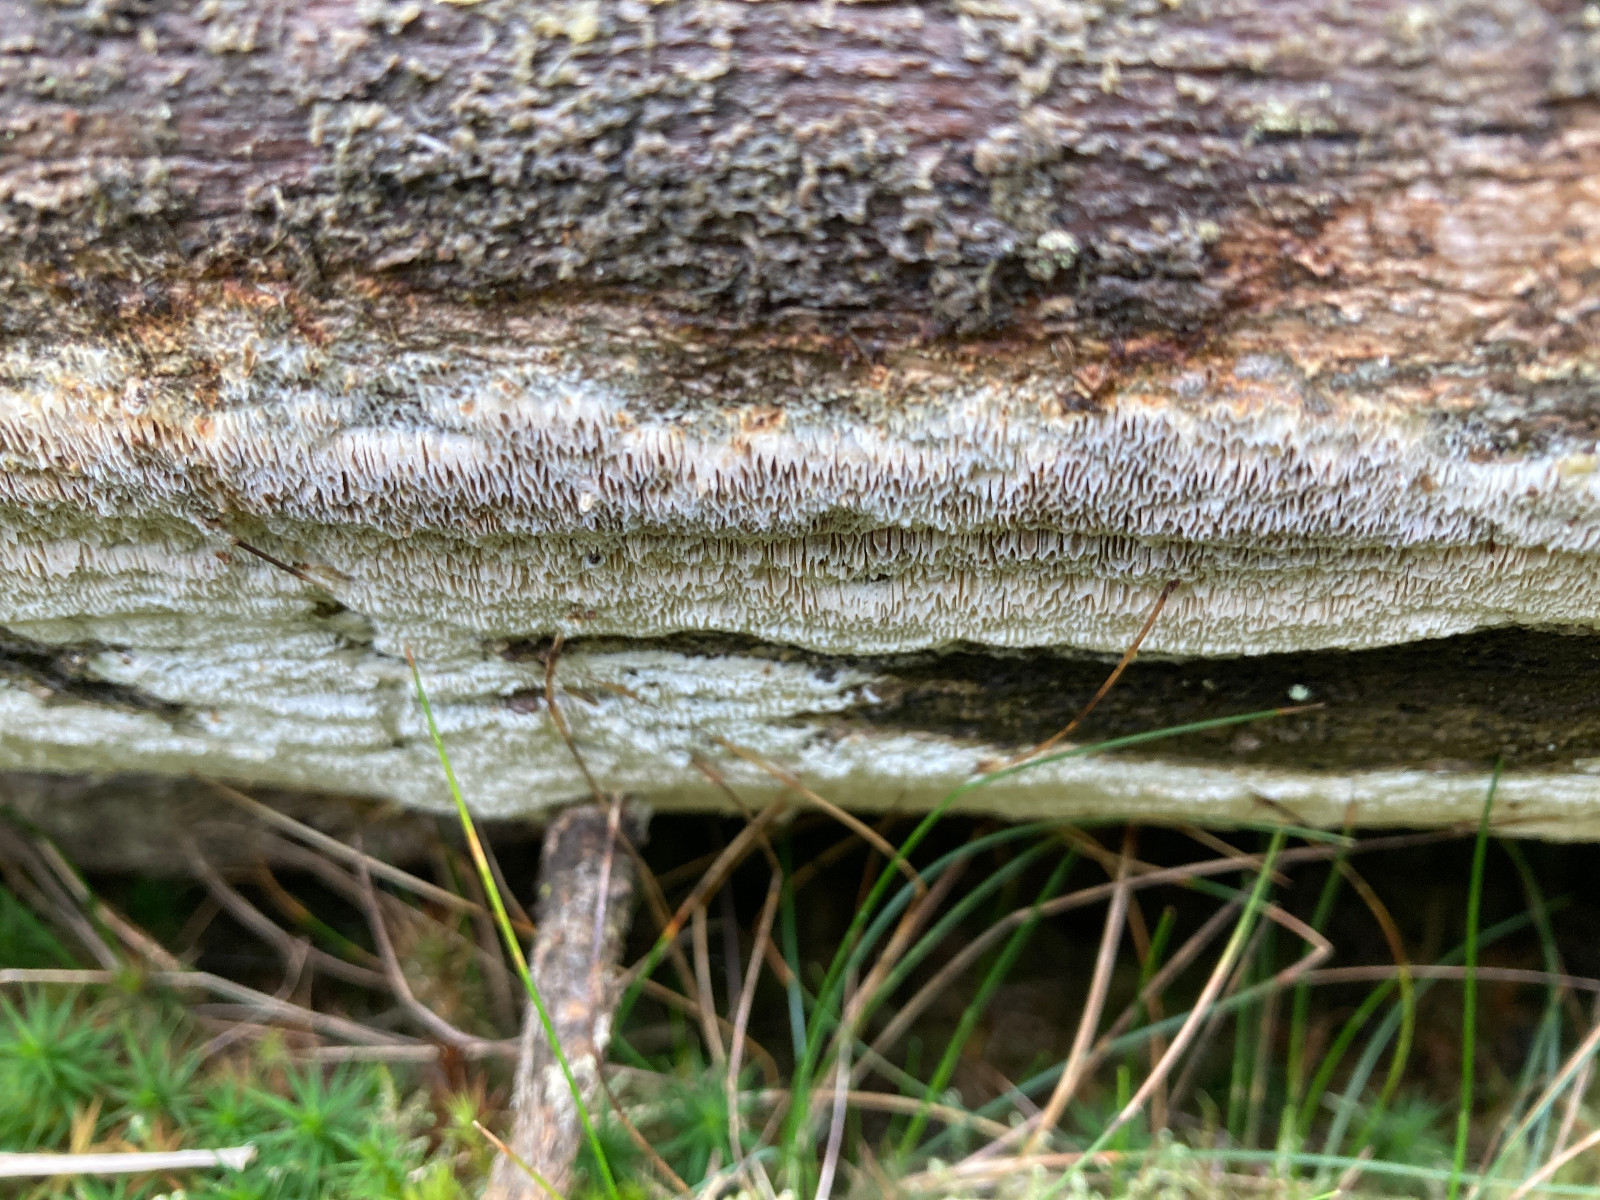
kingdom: Fungi
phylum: Basidiomycota
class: Agaricomycetes
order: Polyporales
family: Fomitopsidaceae
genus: Antrodia
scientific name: Antrodia sinuosa
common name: tømmer-sejporesvamp
